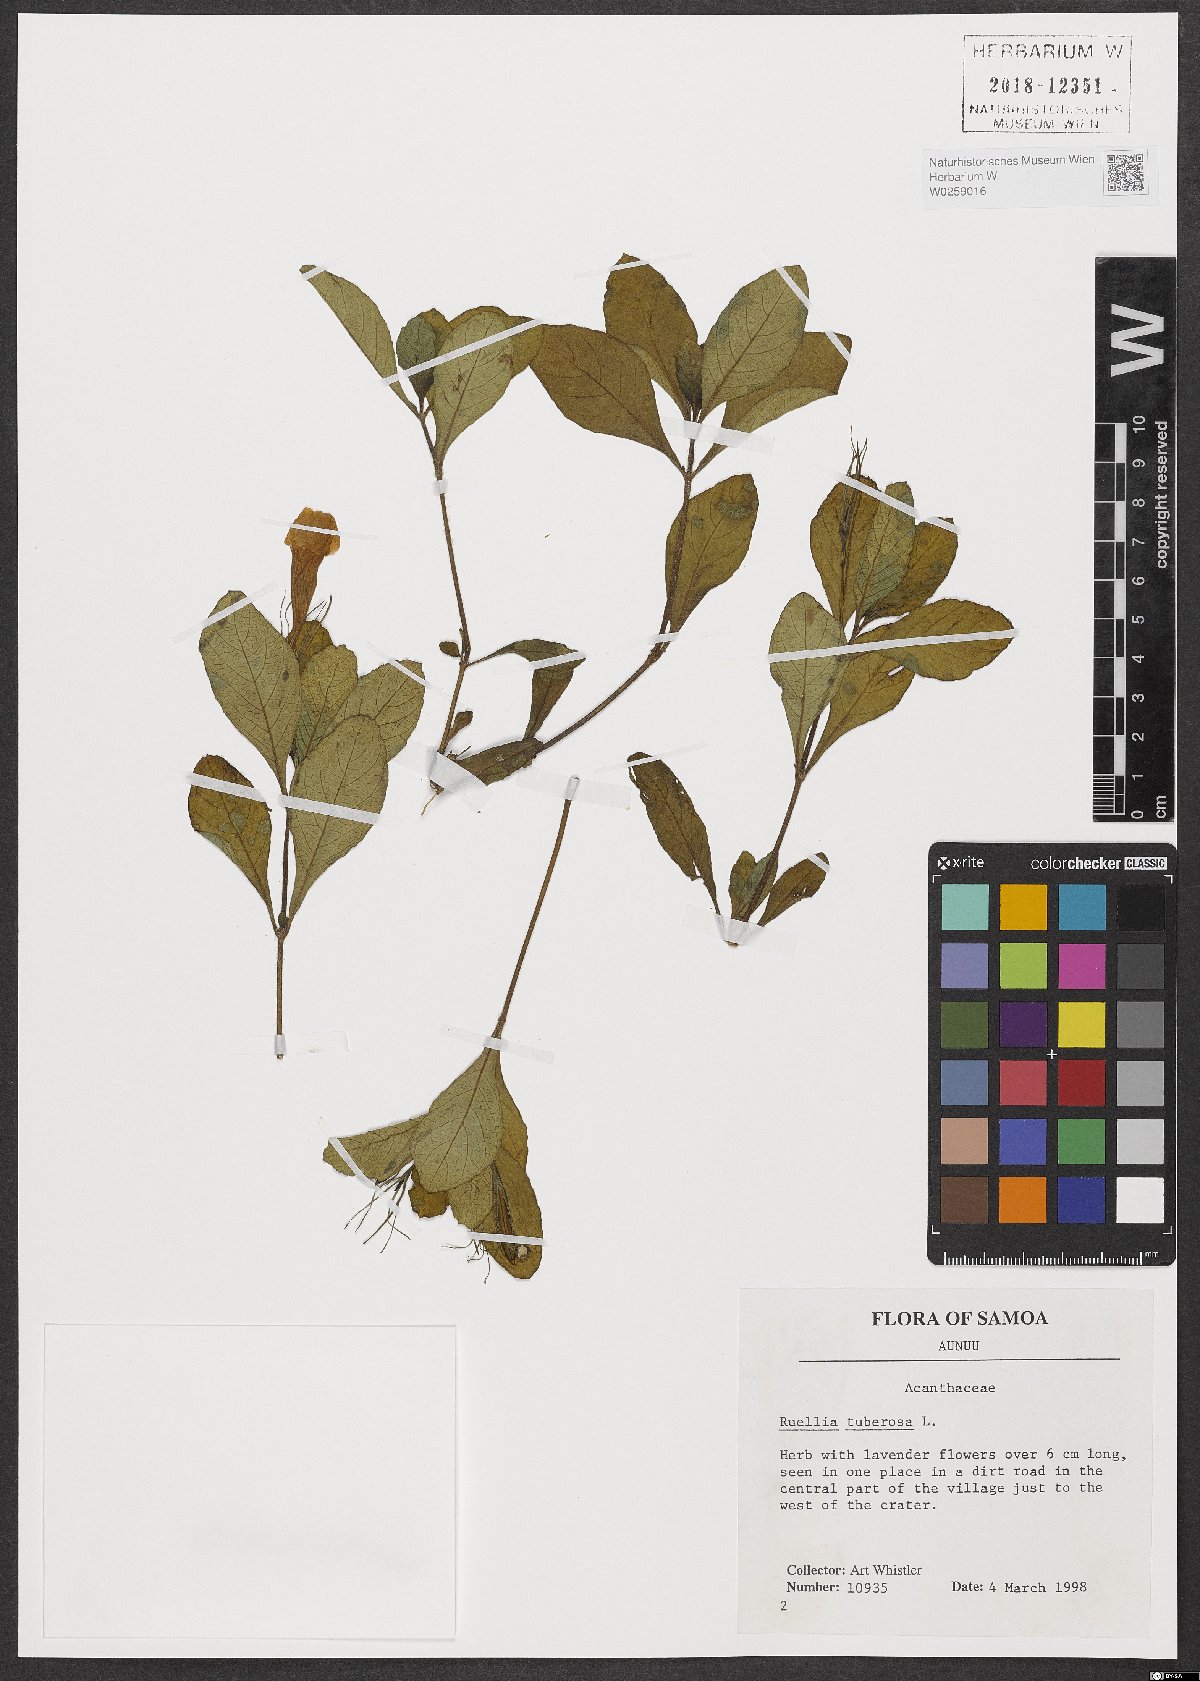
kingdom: Plantae
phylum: Tracheophyta
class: Magnoliopsida
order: Lamiales
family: Acanthaceae
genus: Ruellia
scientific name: Ruellia tuberosa
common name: Devil's bit
